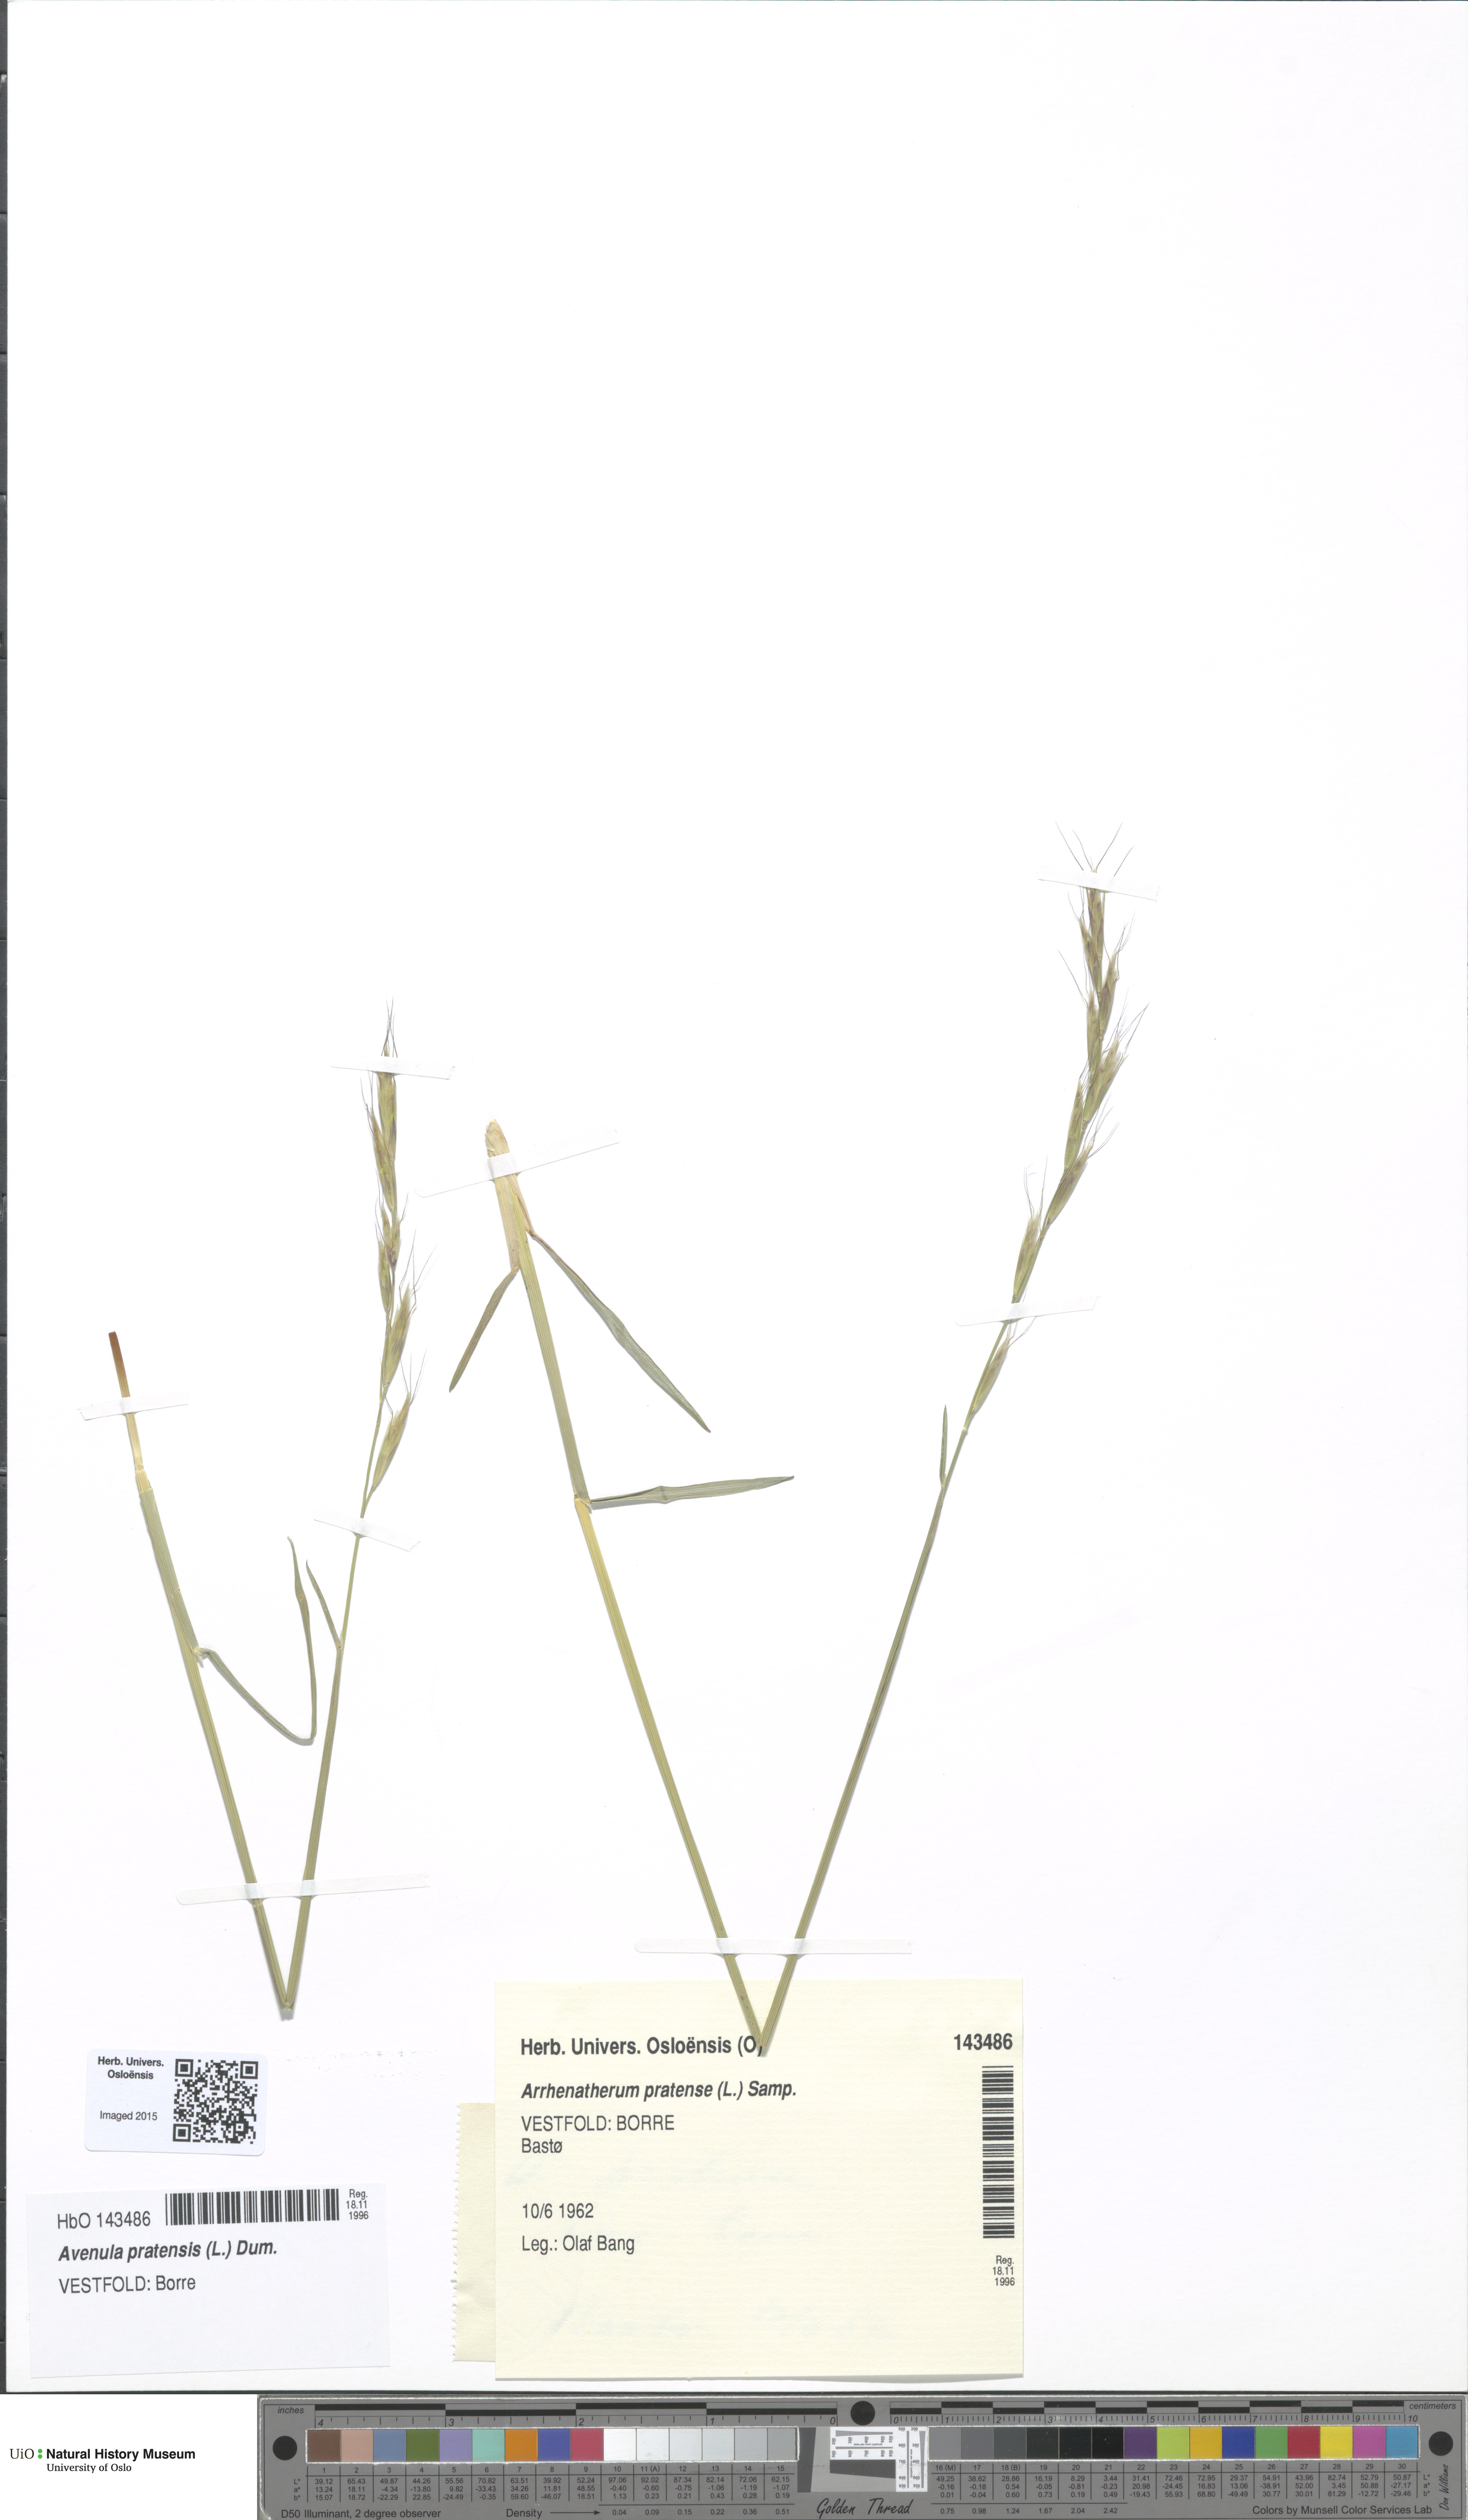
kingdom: Plantae
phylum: Tracheophyta
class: Liliopsida
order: Poales
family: Poaceae
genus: Helictochloa
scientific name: Helictochloa pratensis
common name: Meadow oat grass
